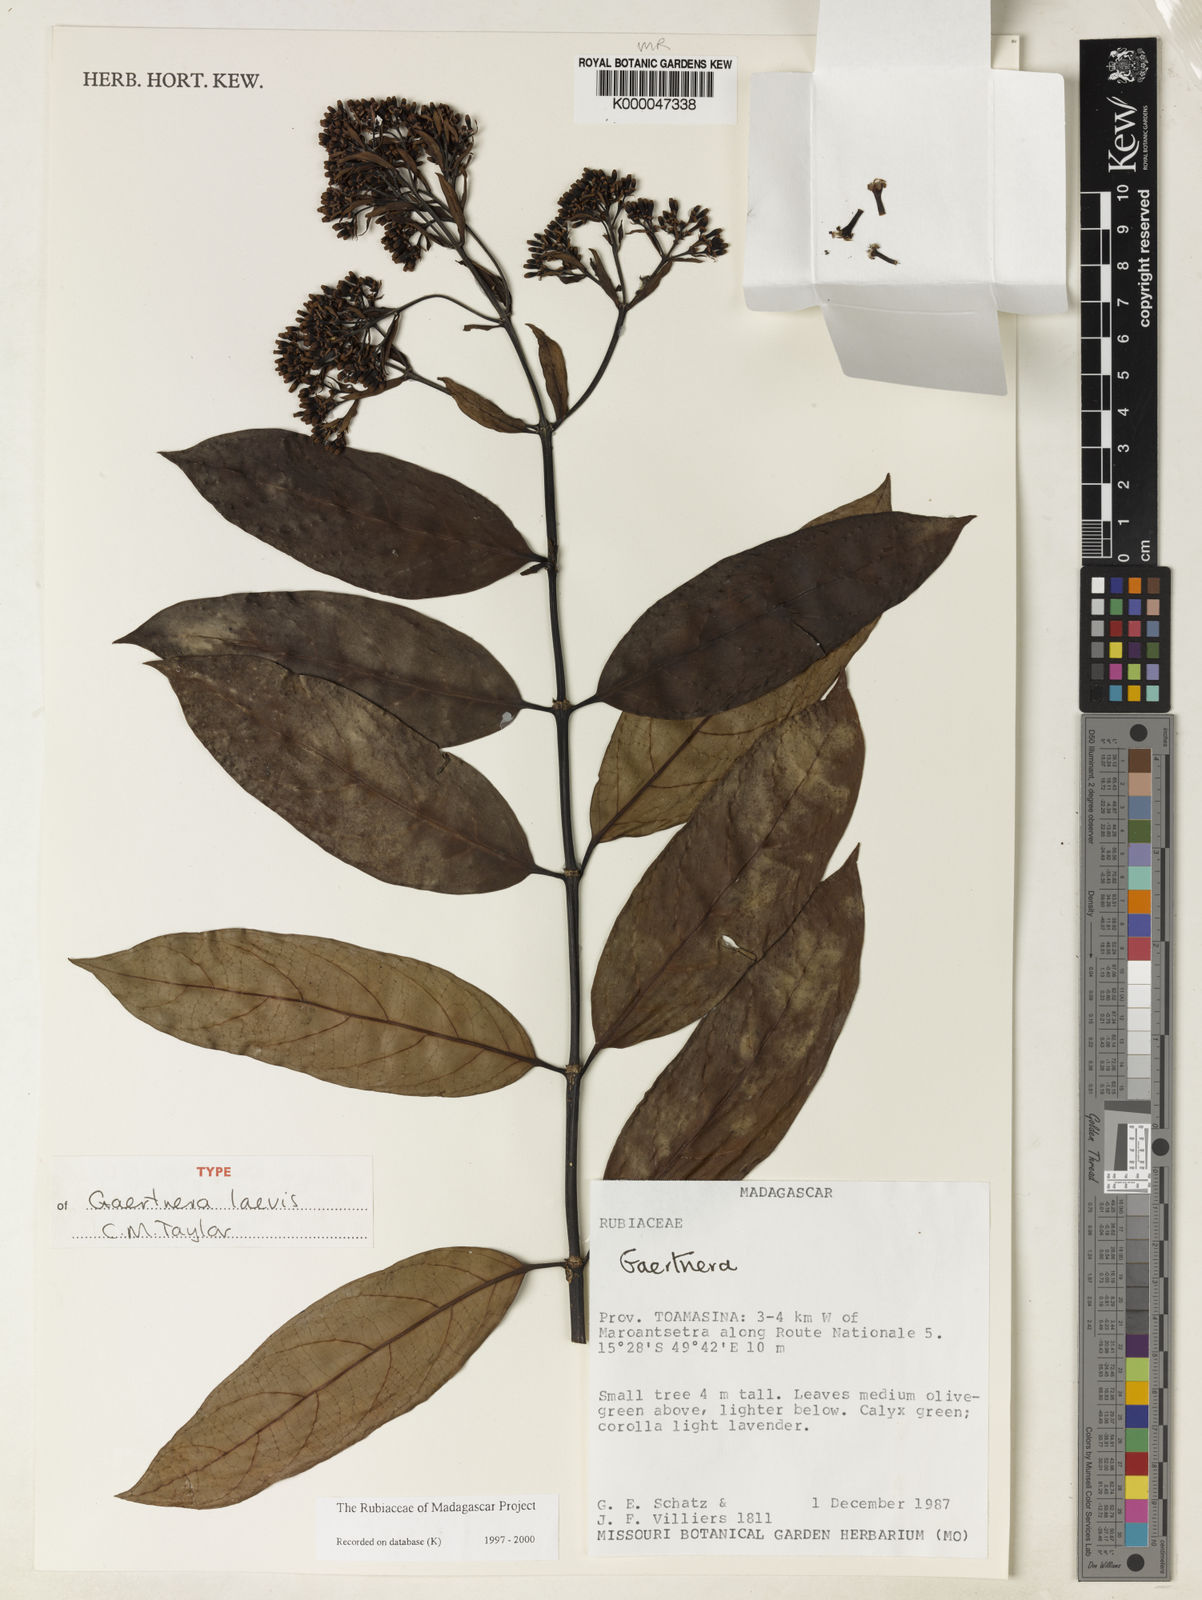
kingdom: Plantae
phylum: Tracheophyta
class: Magnoliopsida
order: Gentianales
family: Rubiaceae
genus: Gaertnera
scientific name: Gaertnera laevis
